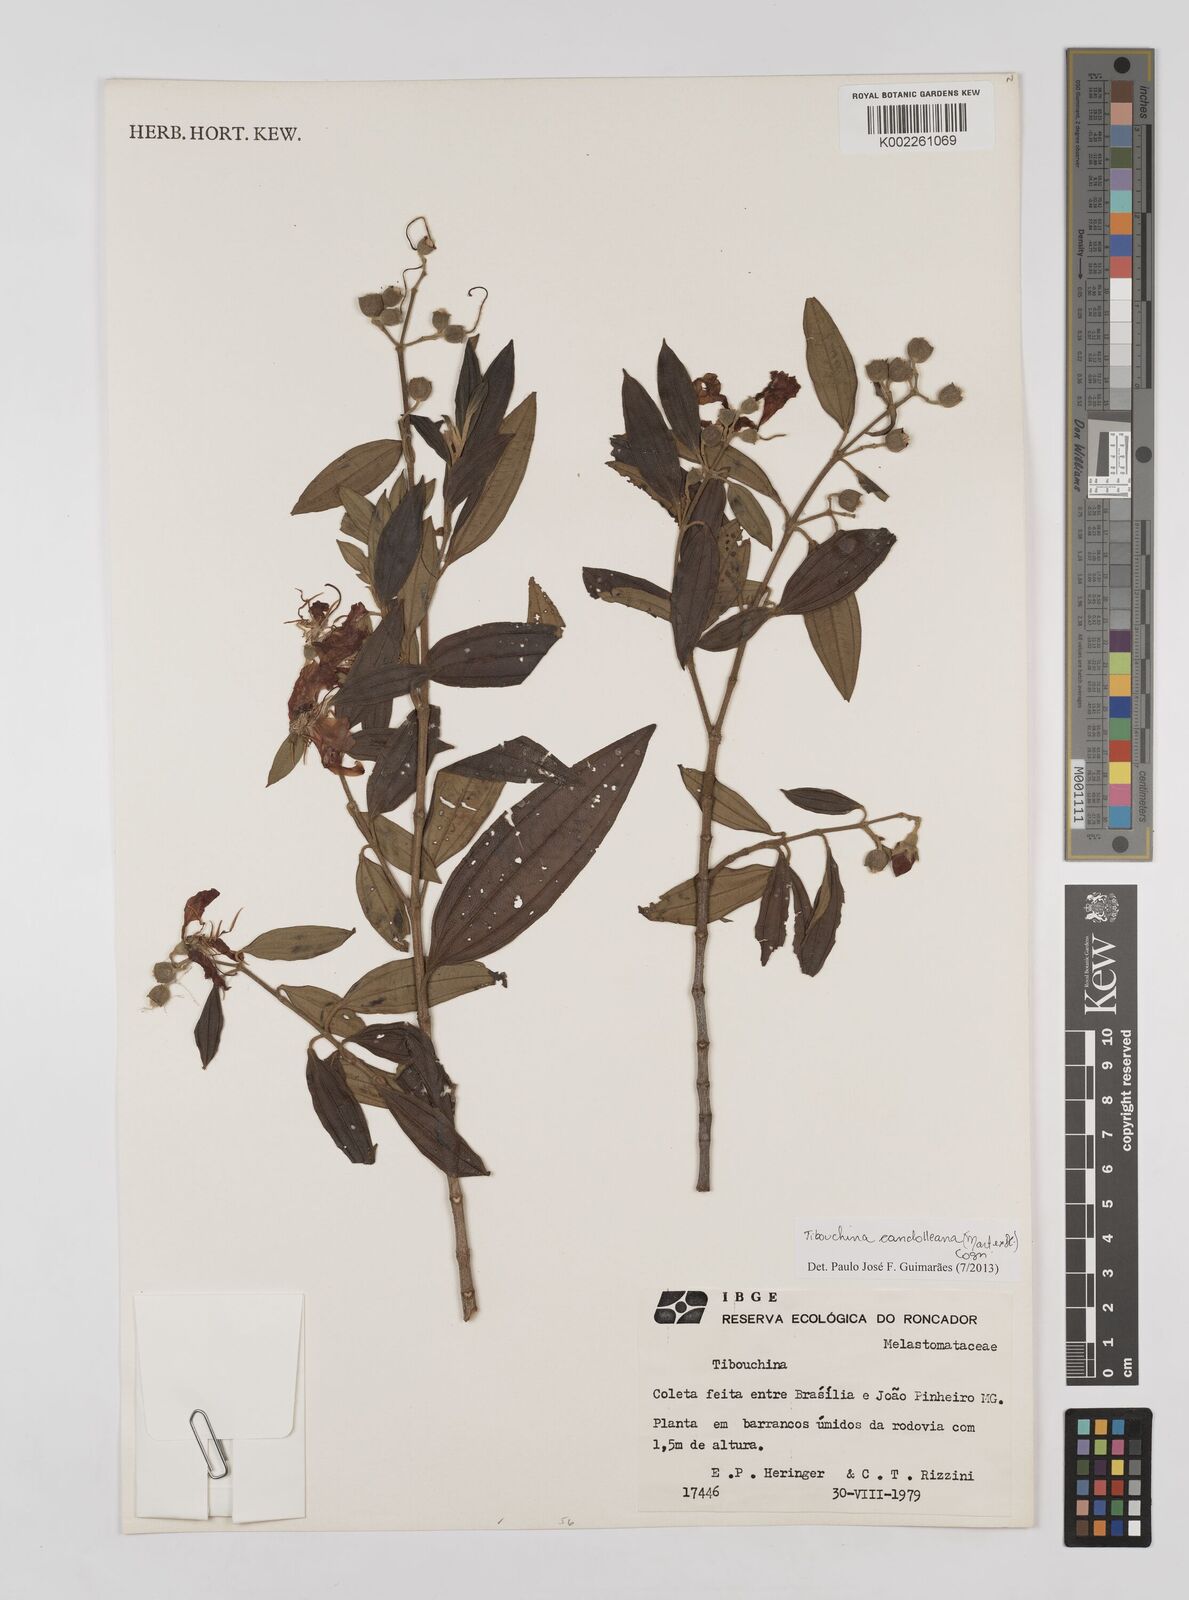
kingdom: Plantae
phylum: Tracheophyta
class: Magnoliopsida
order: Myrtales
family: Melastomataceae
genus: Pleroma
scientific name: Pleroma candolleanum
